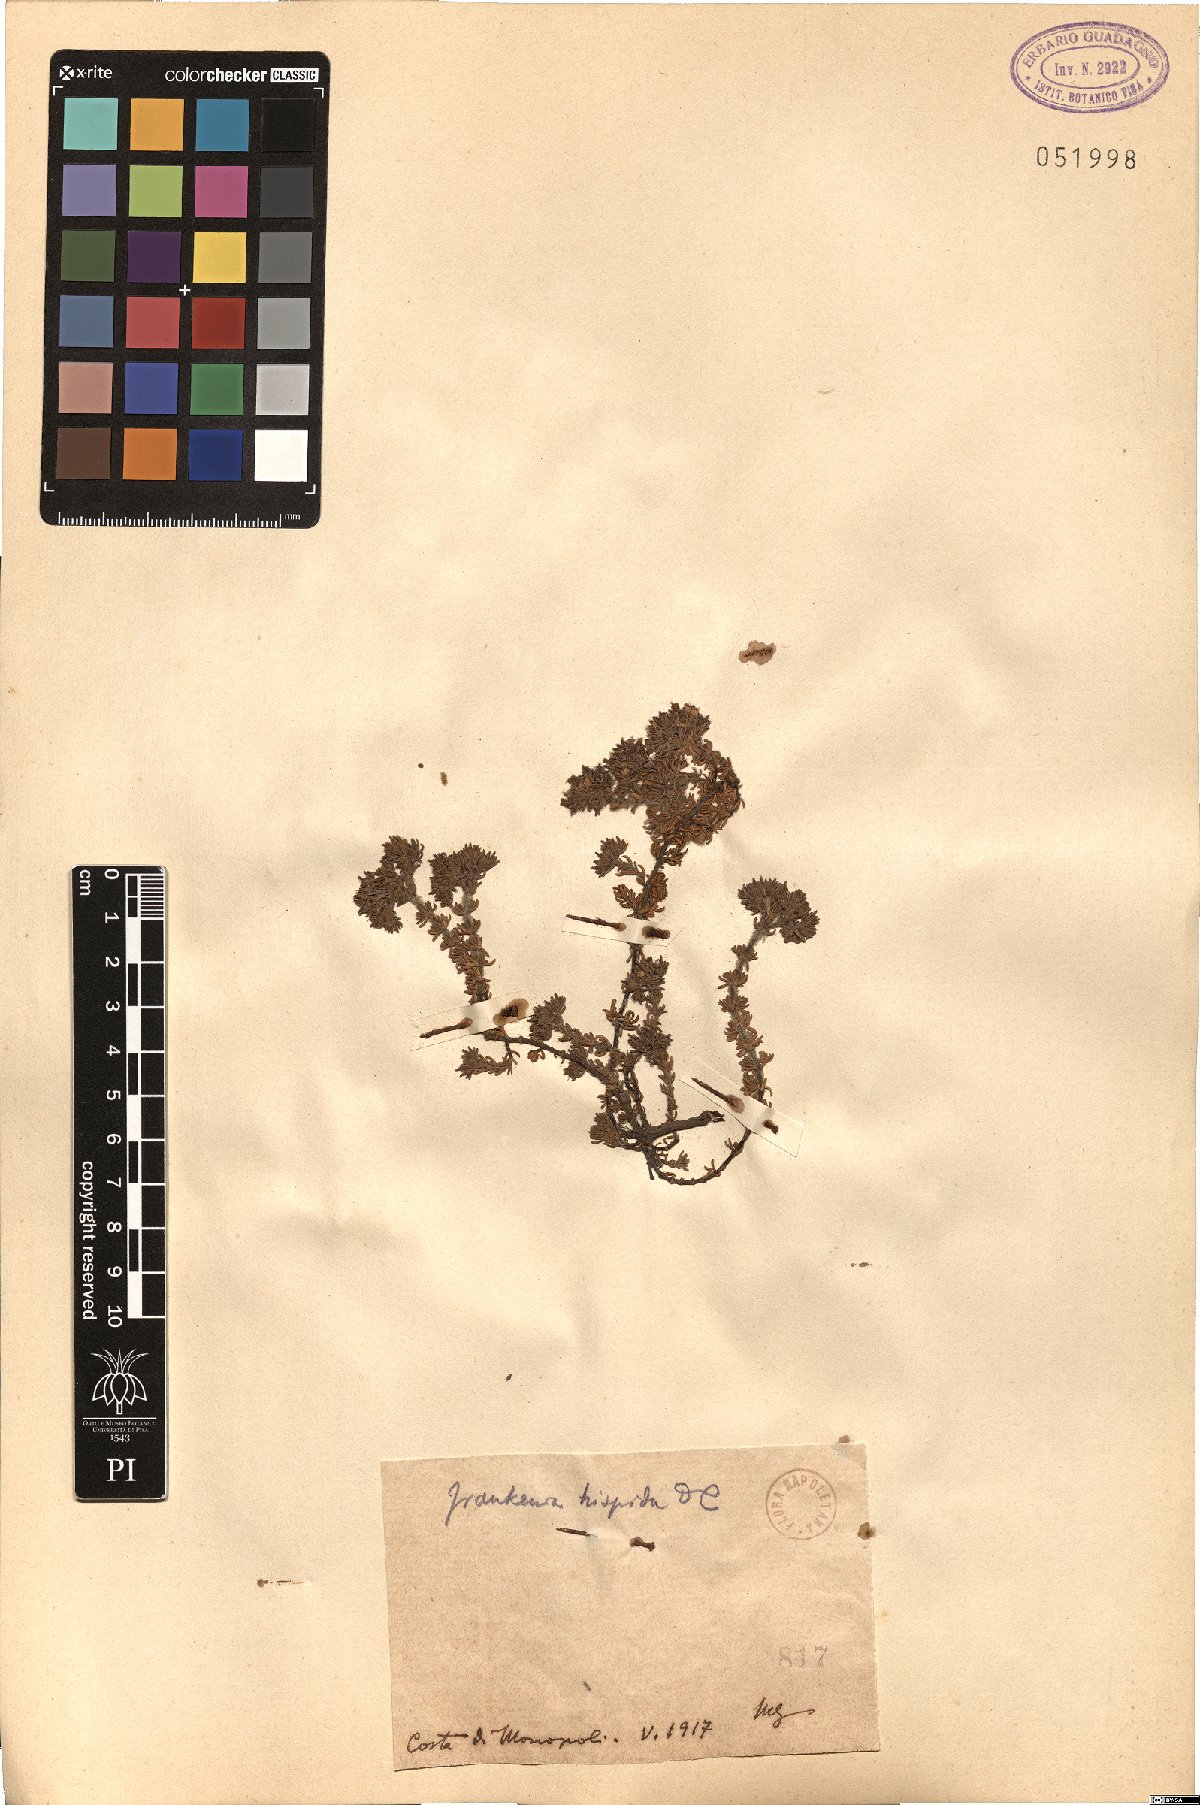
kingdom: Plantae
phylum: Tracheophyta
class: Magnoliopsida
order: Caryophyllales
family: Frankeniaceae
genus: Frankenia
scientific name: Frankenia hirsuta
